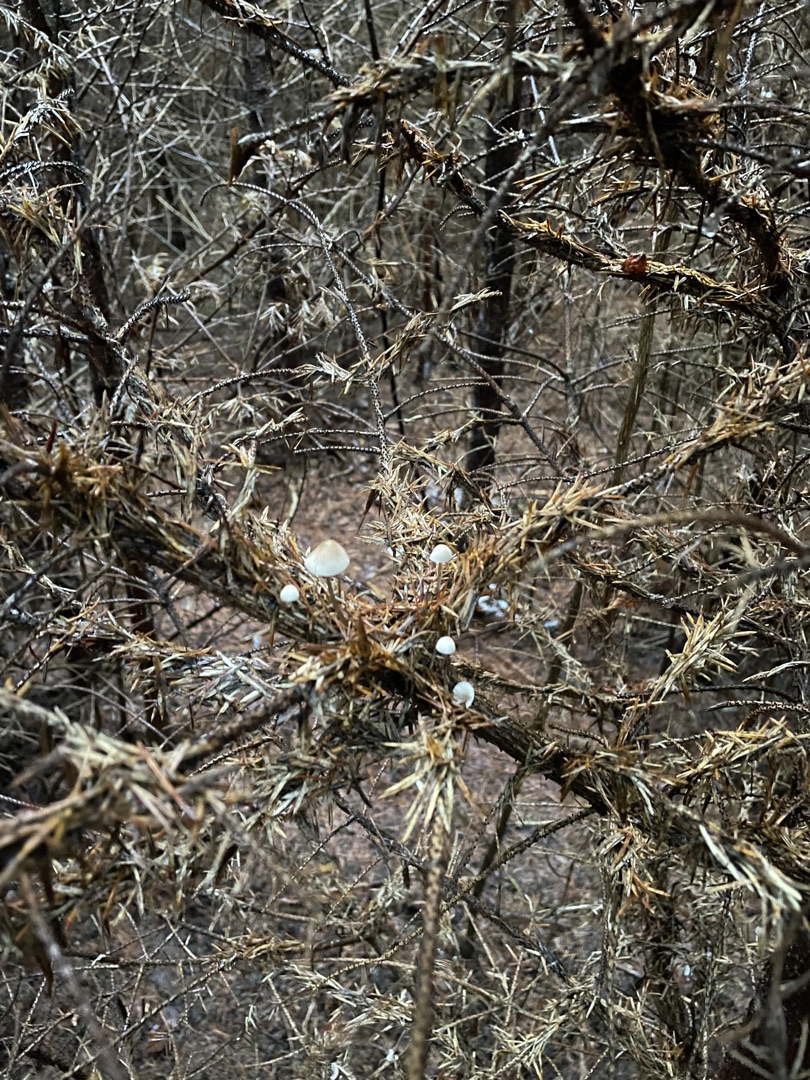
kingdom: Fungi
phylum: Basidiomycota
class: Agaricomycetes
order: Agaricales
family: Mycenaceae
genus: Mycena
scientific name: Mycena
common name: Huesvamp
